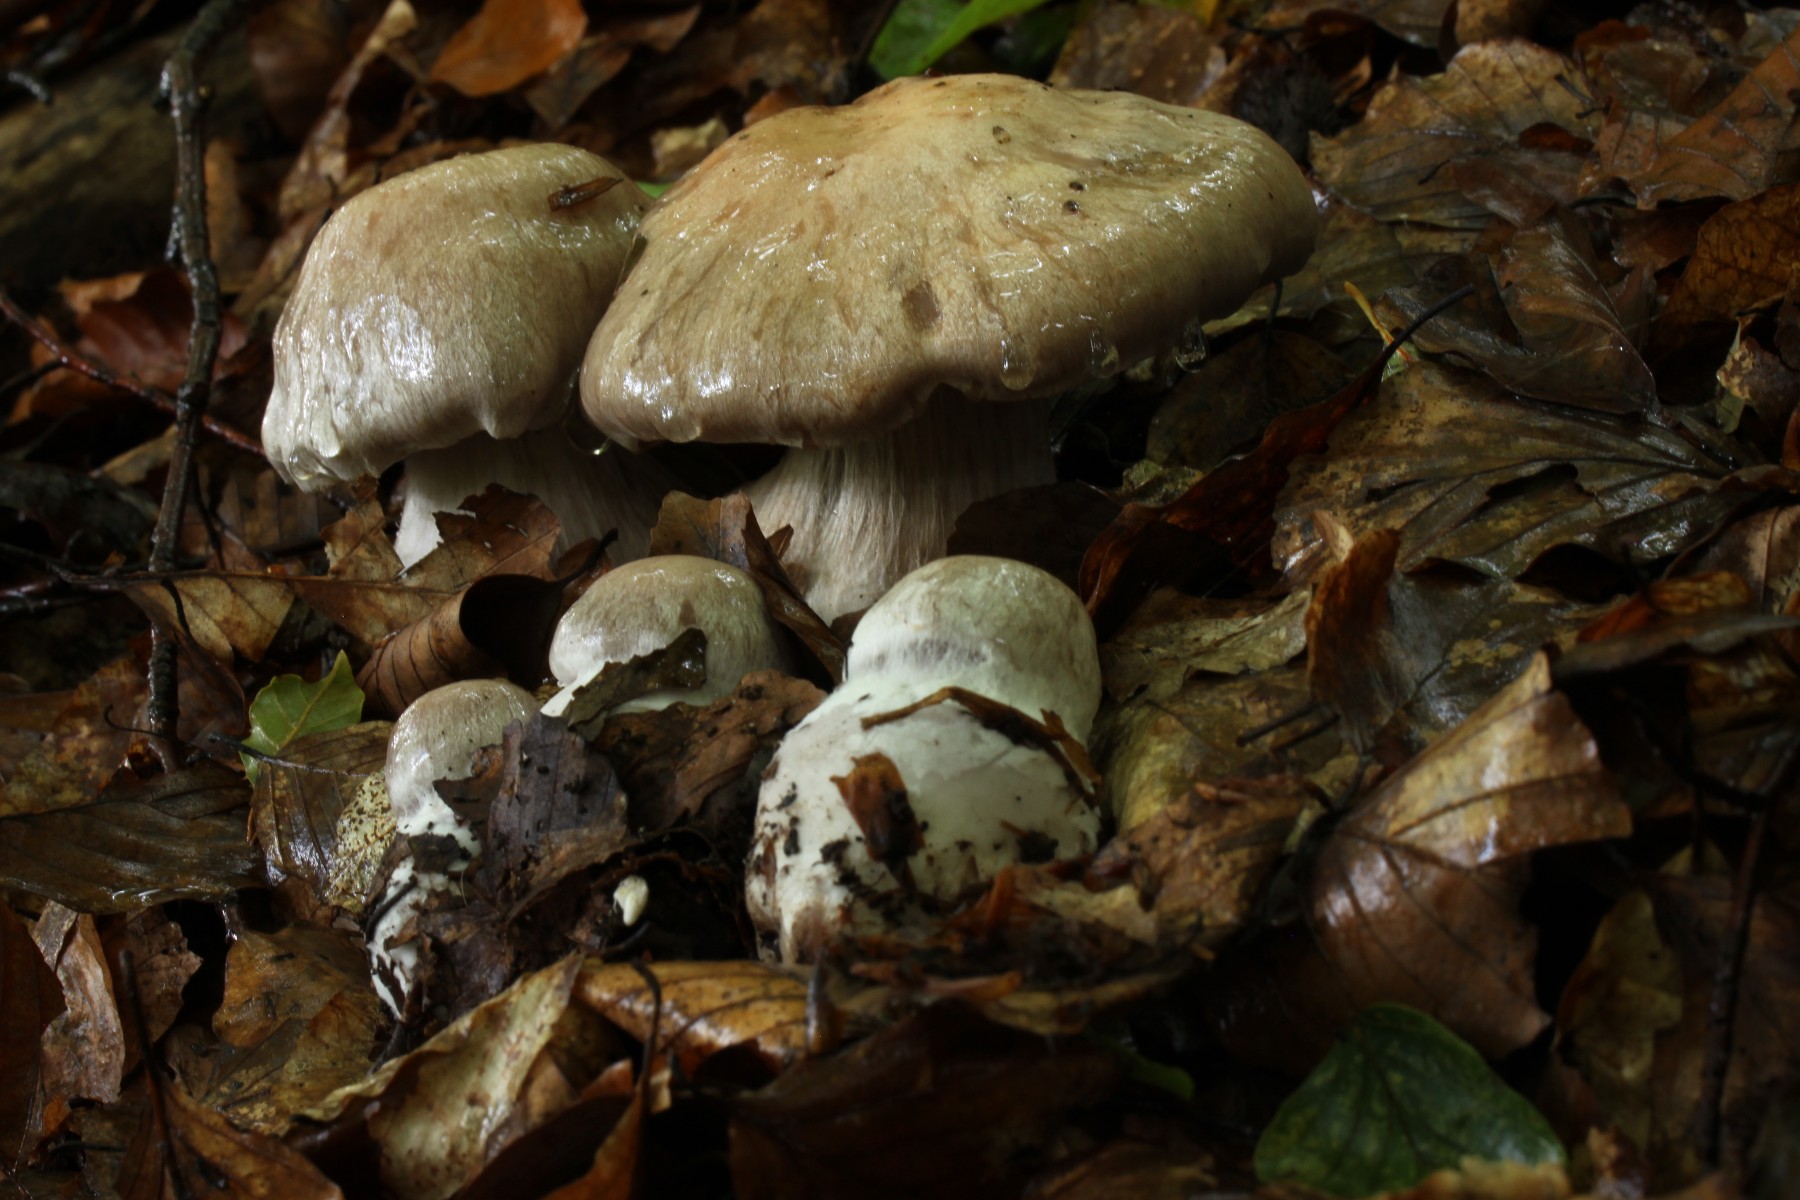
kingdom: Fungi
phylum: Basidiomycota
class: Agaricomycetes
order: Agaricales
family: Cortinariaceae
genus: Cortinarius
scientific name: Cortinarius
